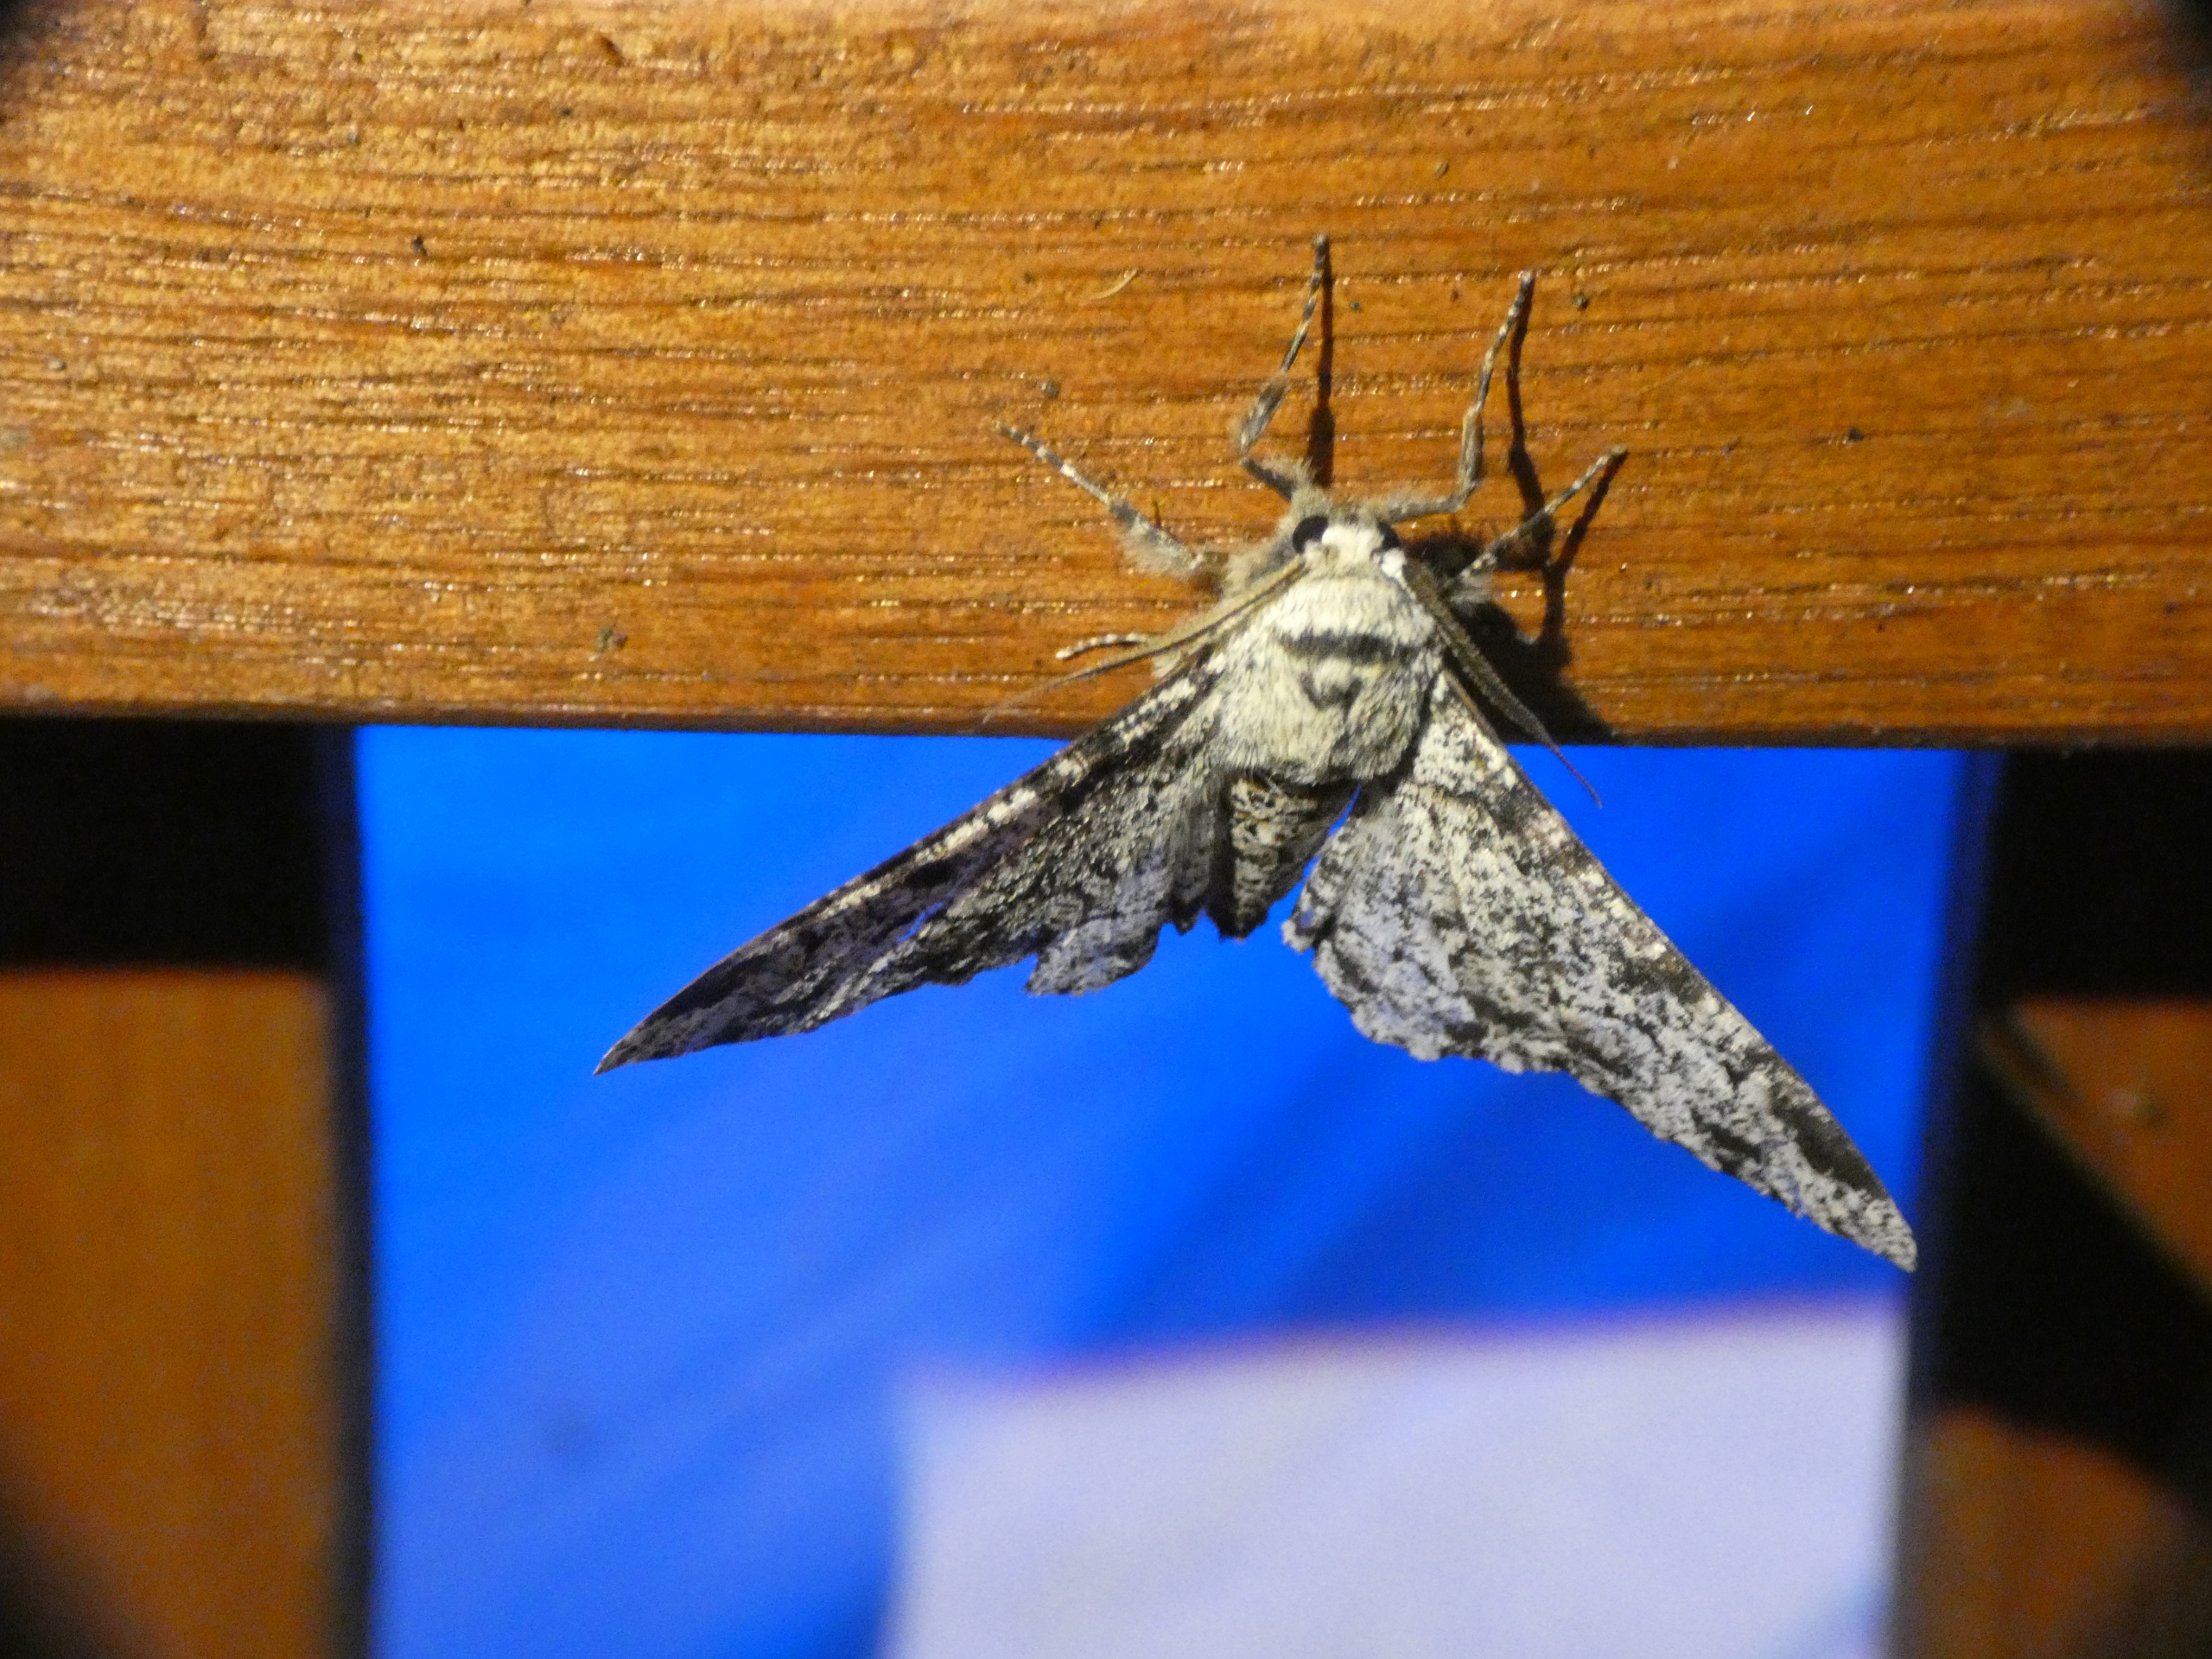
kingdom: Animalia
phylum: Arthropoda
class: Insecta
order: Lepidoptera
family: Geometridae
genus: Biston
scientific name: Biston betularia
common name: Birkemåler
